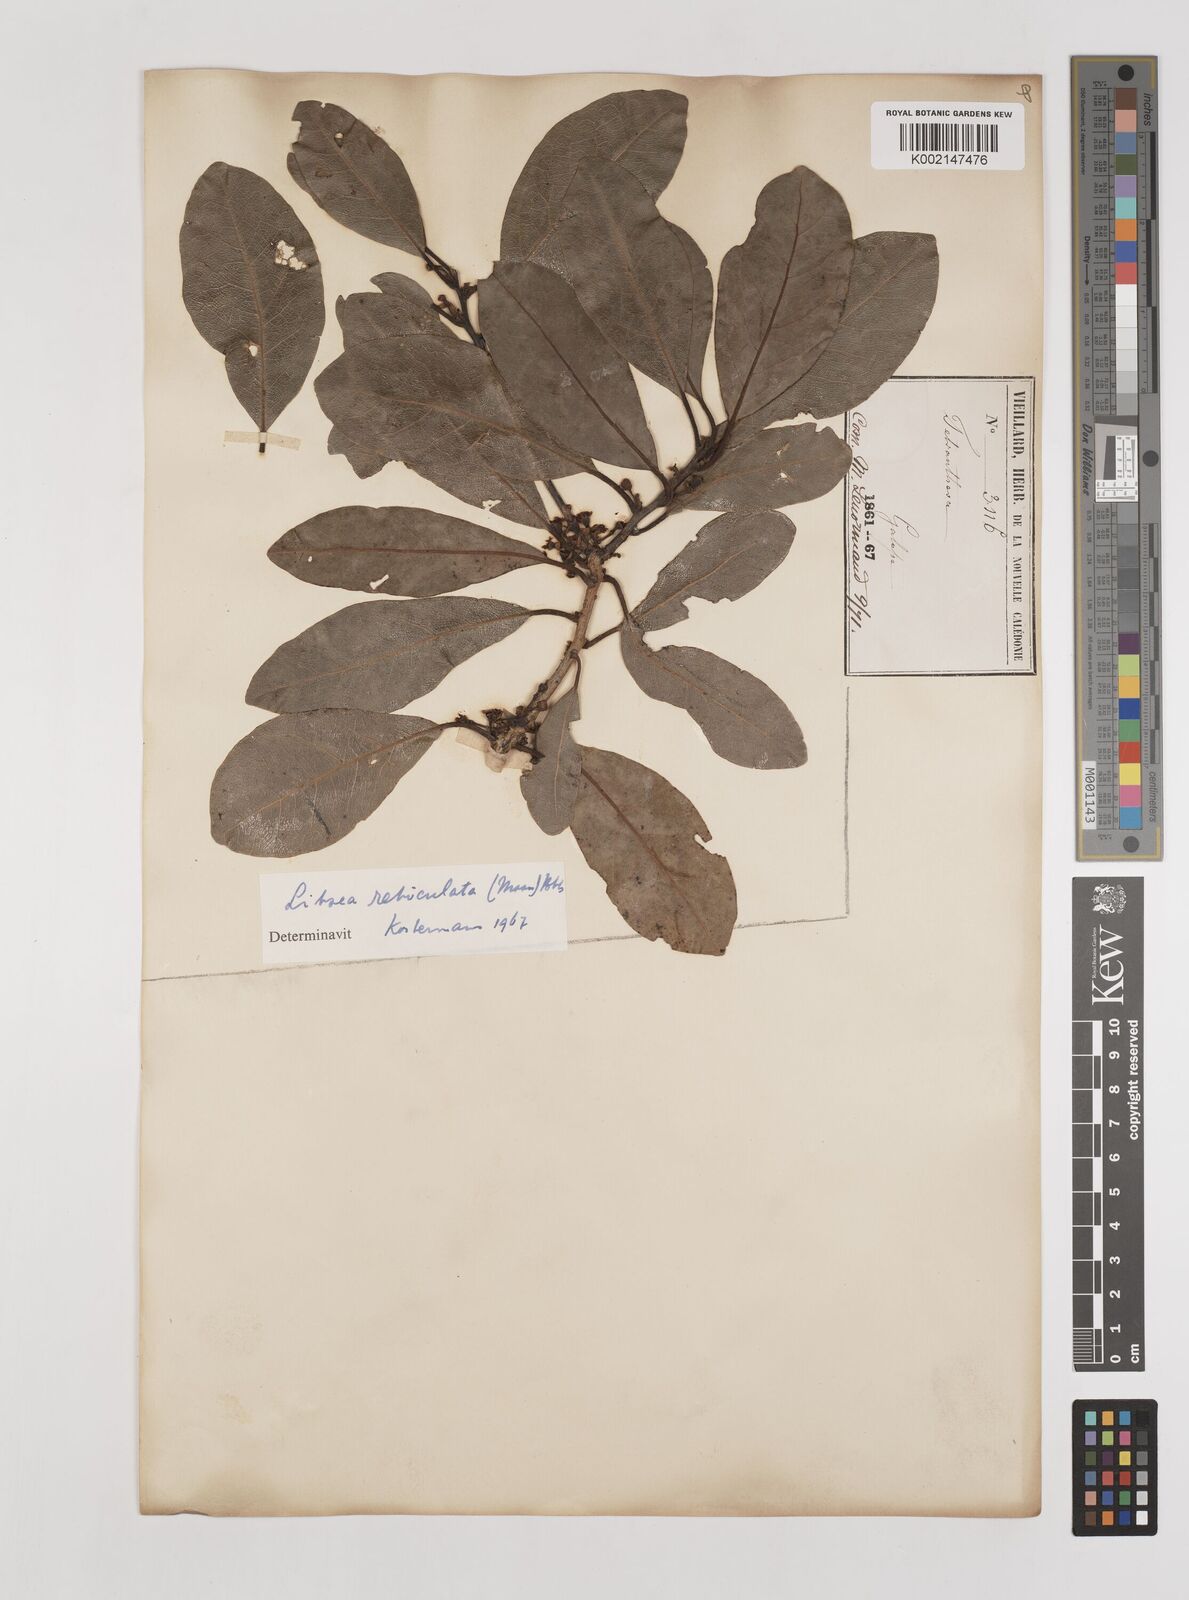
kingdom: Plantae
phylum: Tracheophyta
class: Magnoliopsida
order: Laurales
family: Lauraceae
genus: Litsea
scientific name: Litsea reticulata
